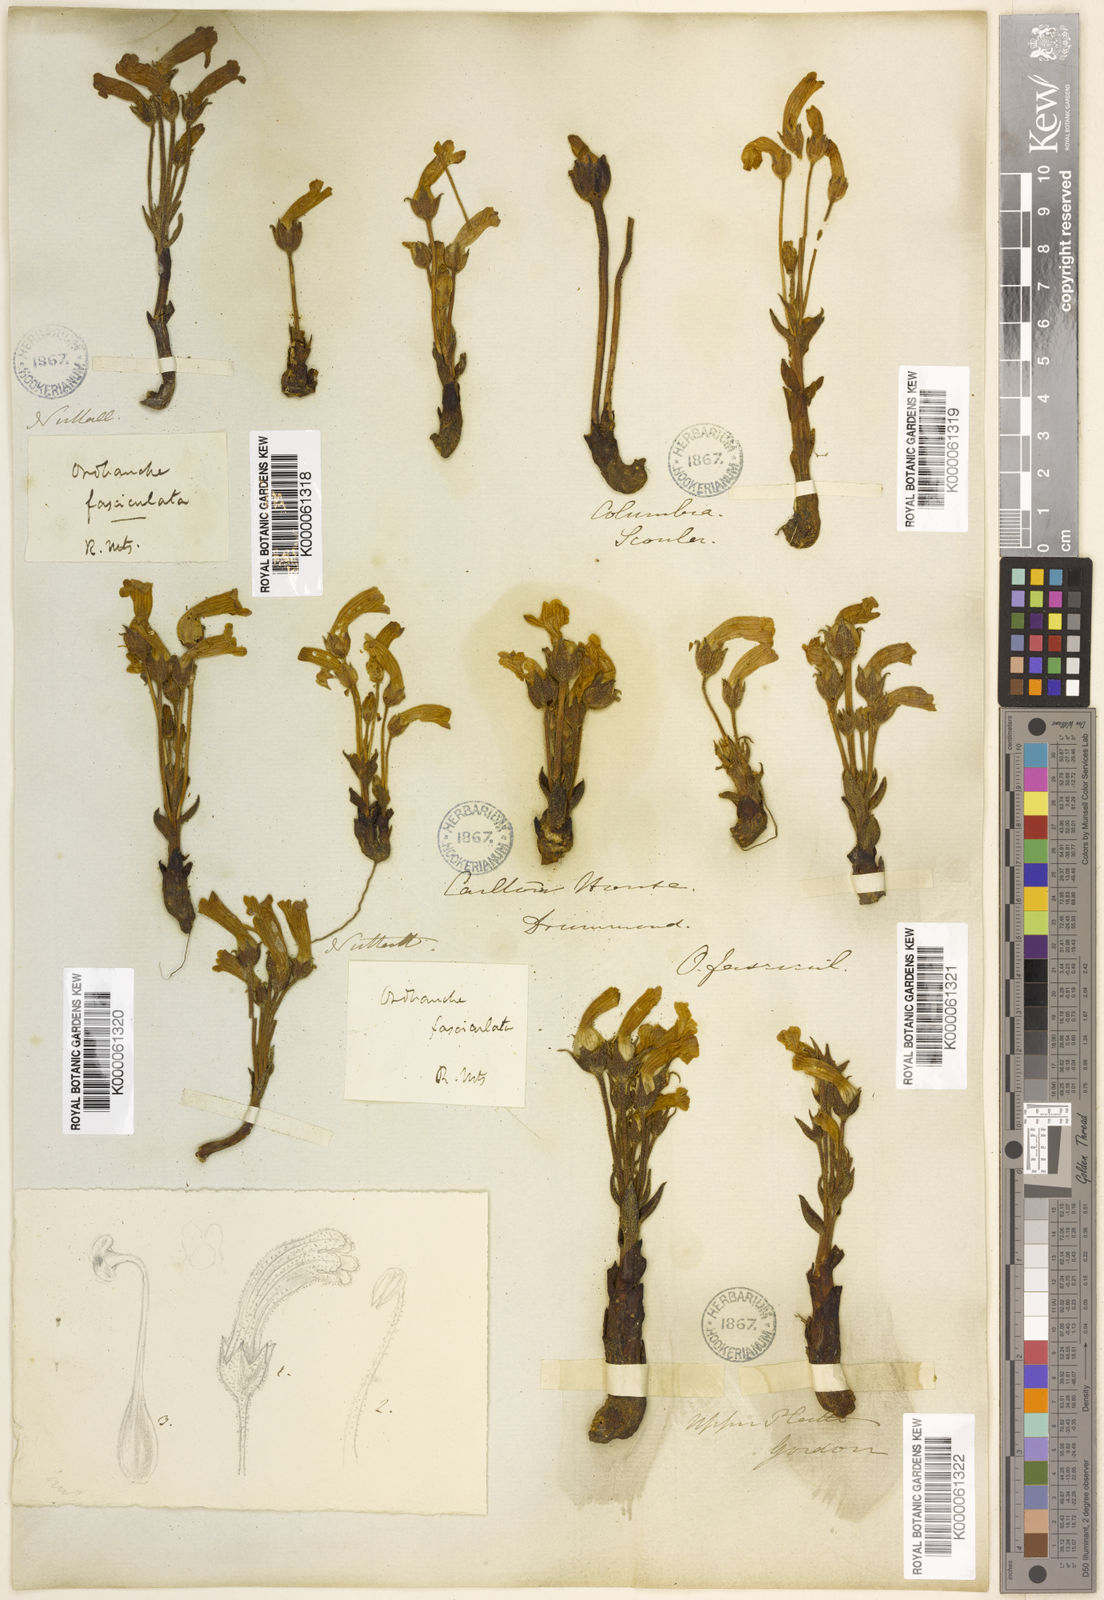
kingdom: Plantae
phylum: Tracheophyta
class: Magnoliopsida
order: Lamiales
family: Orobanchaceae
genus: Aphyllon
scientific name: Aphyllon fasciculatum
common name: Clustered broomrape
